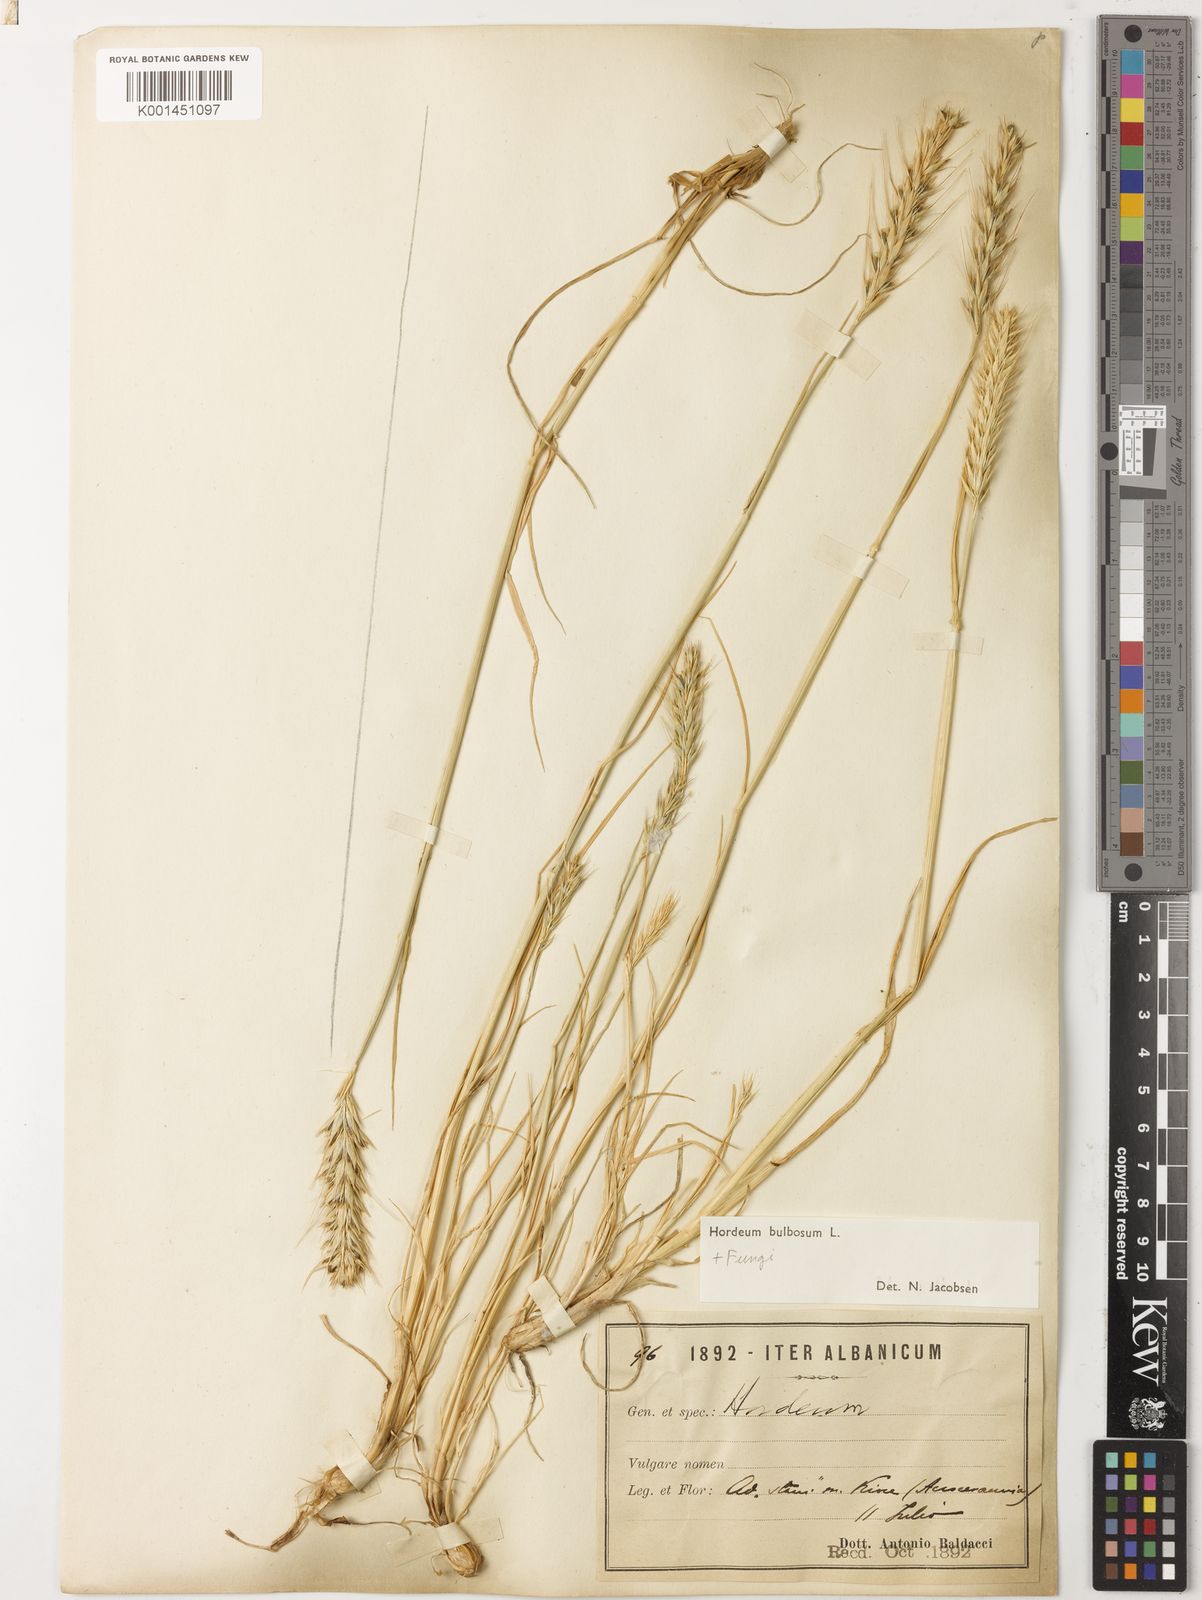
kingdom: Plantae
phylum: Tracheophyta
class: Liliopsida
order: Poales
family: Poaceae
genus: Hordeum
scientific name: Hordeum bulbosum
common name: Bulbous barley
